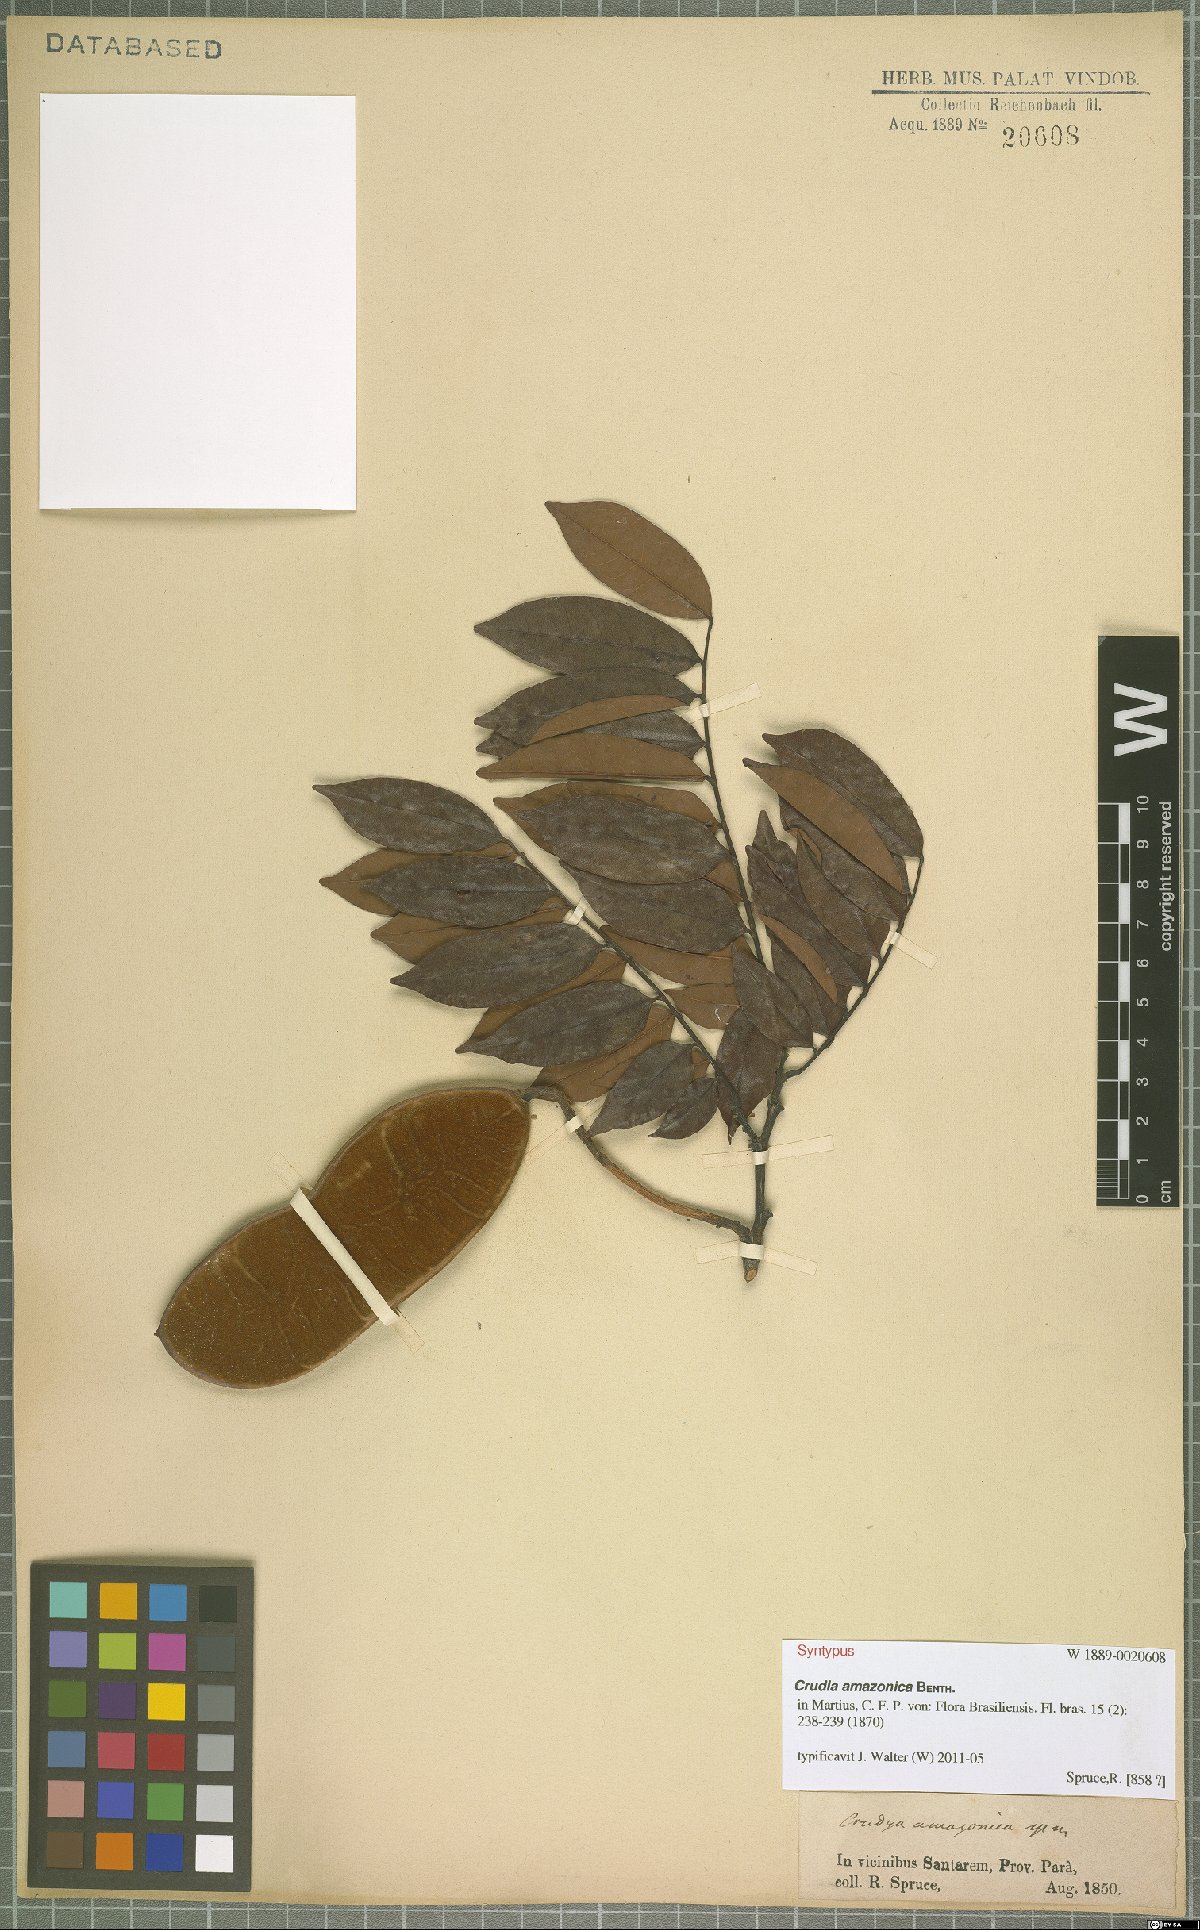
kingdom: Plantae
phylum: Tracheophyta
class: Magnoliopsida
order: Fabales
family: Fabaceae
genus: Crudia
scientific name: Crudia amazonica
